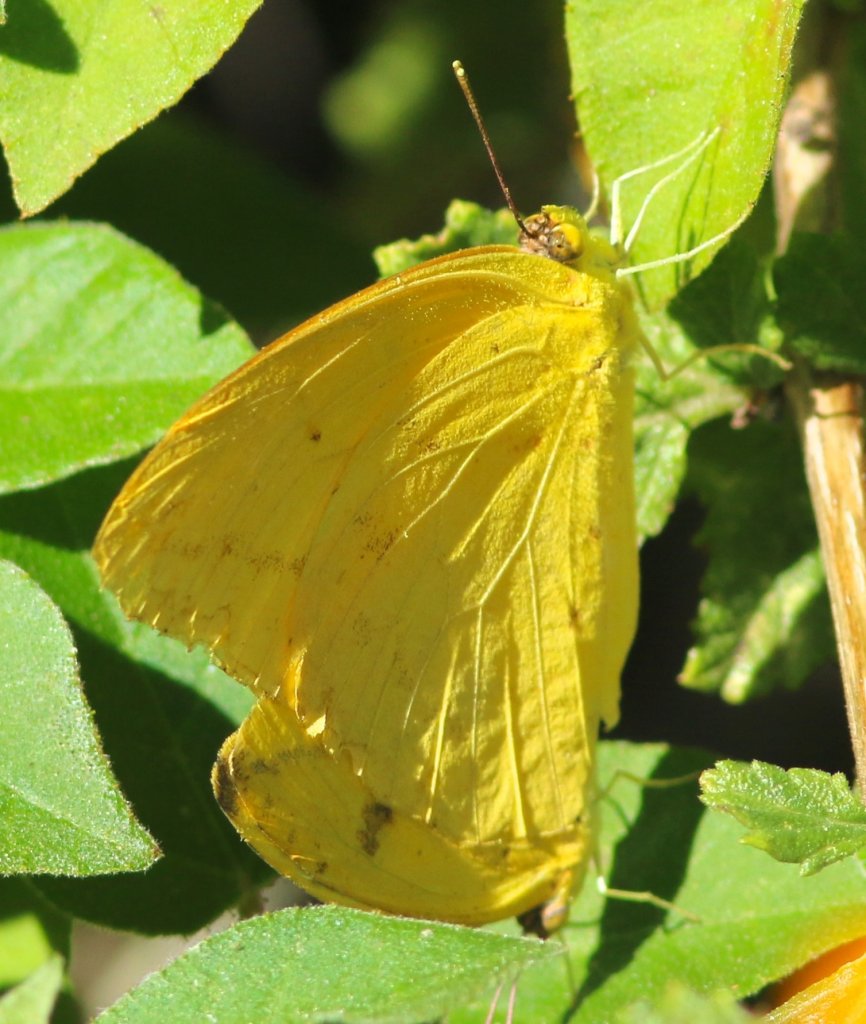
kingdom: Animalia
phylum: Arthropoda
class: Insecta
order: Lepidoptera
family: Pieridae
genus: Pyrisitia
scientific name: Pyrisitia nise
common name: Mimosa Yellow
